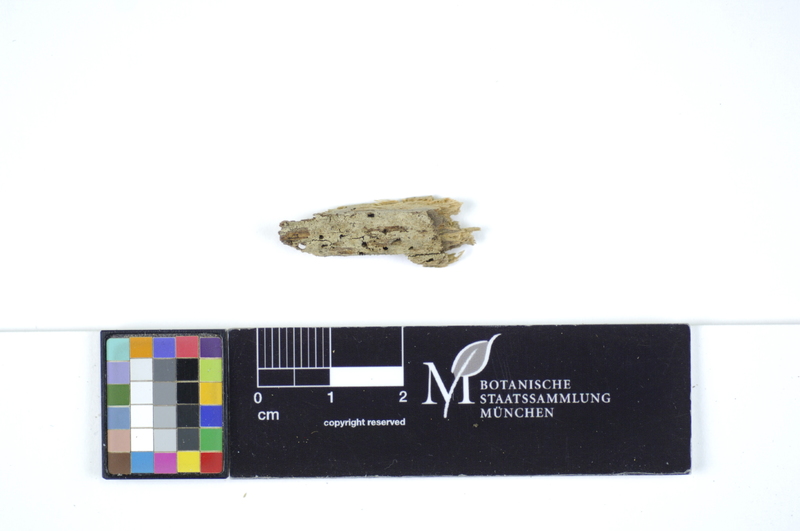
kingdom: Plantae
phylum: Tracheophyta
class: Magnoliopsida
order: Fagales
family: Fagaceae
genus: Fagus
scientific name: Fagus sylvatica
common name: Beech
